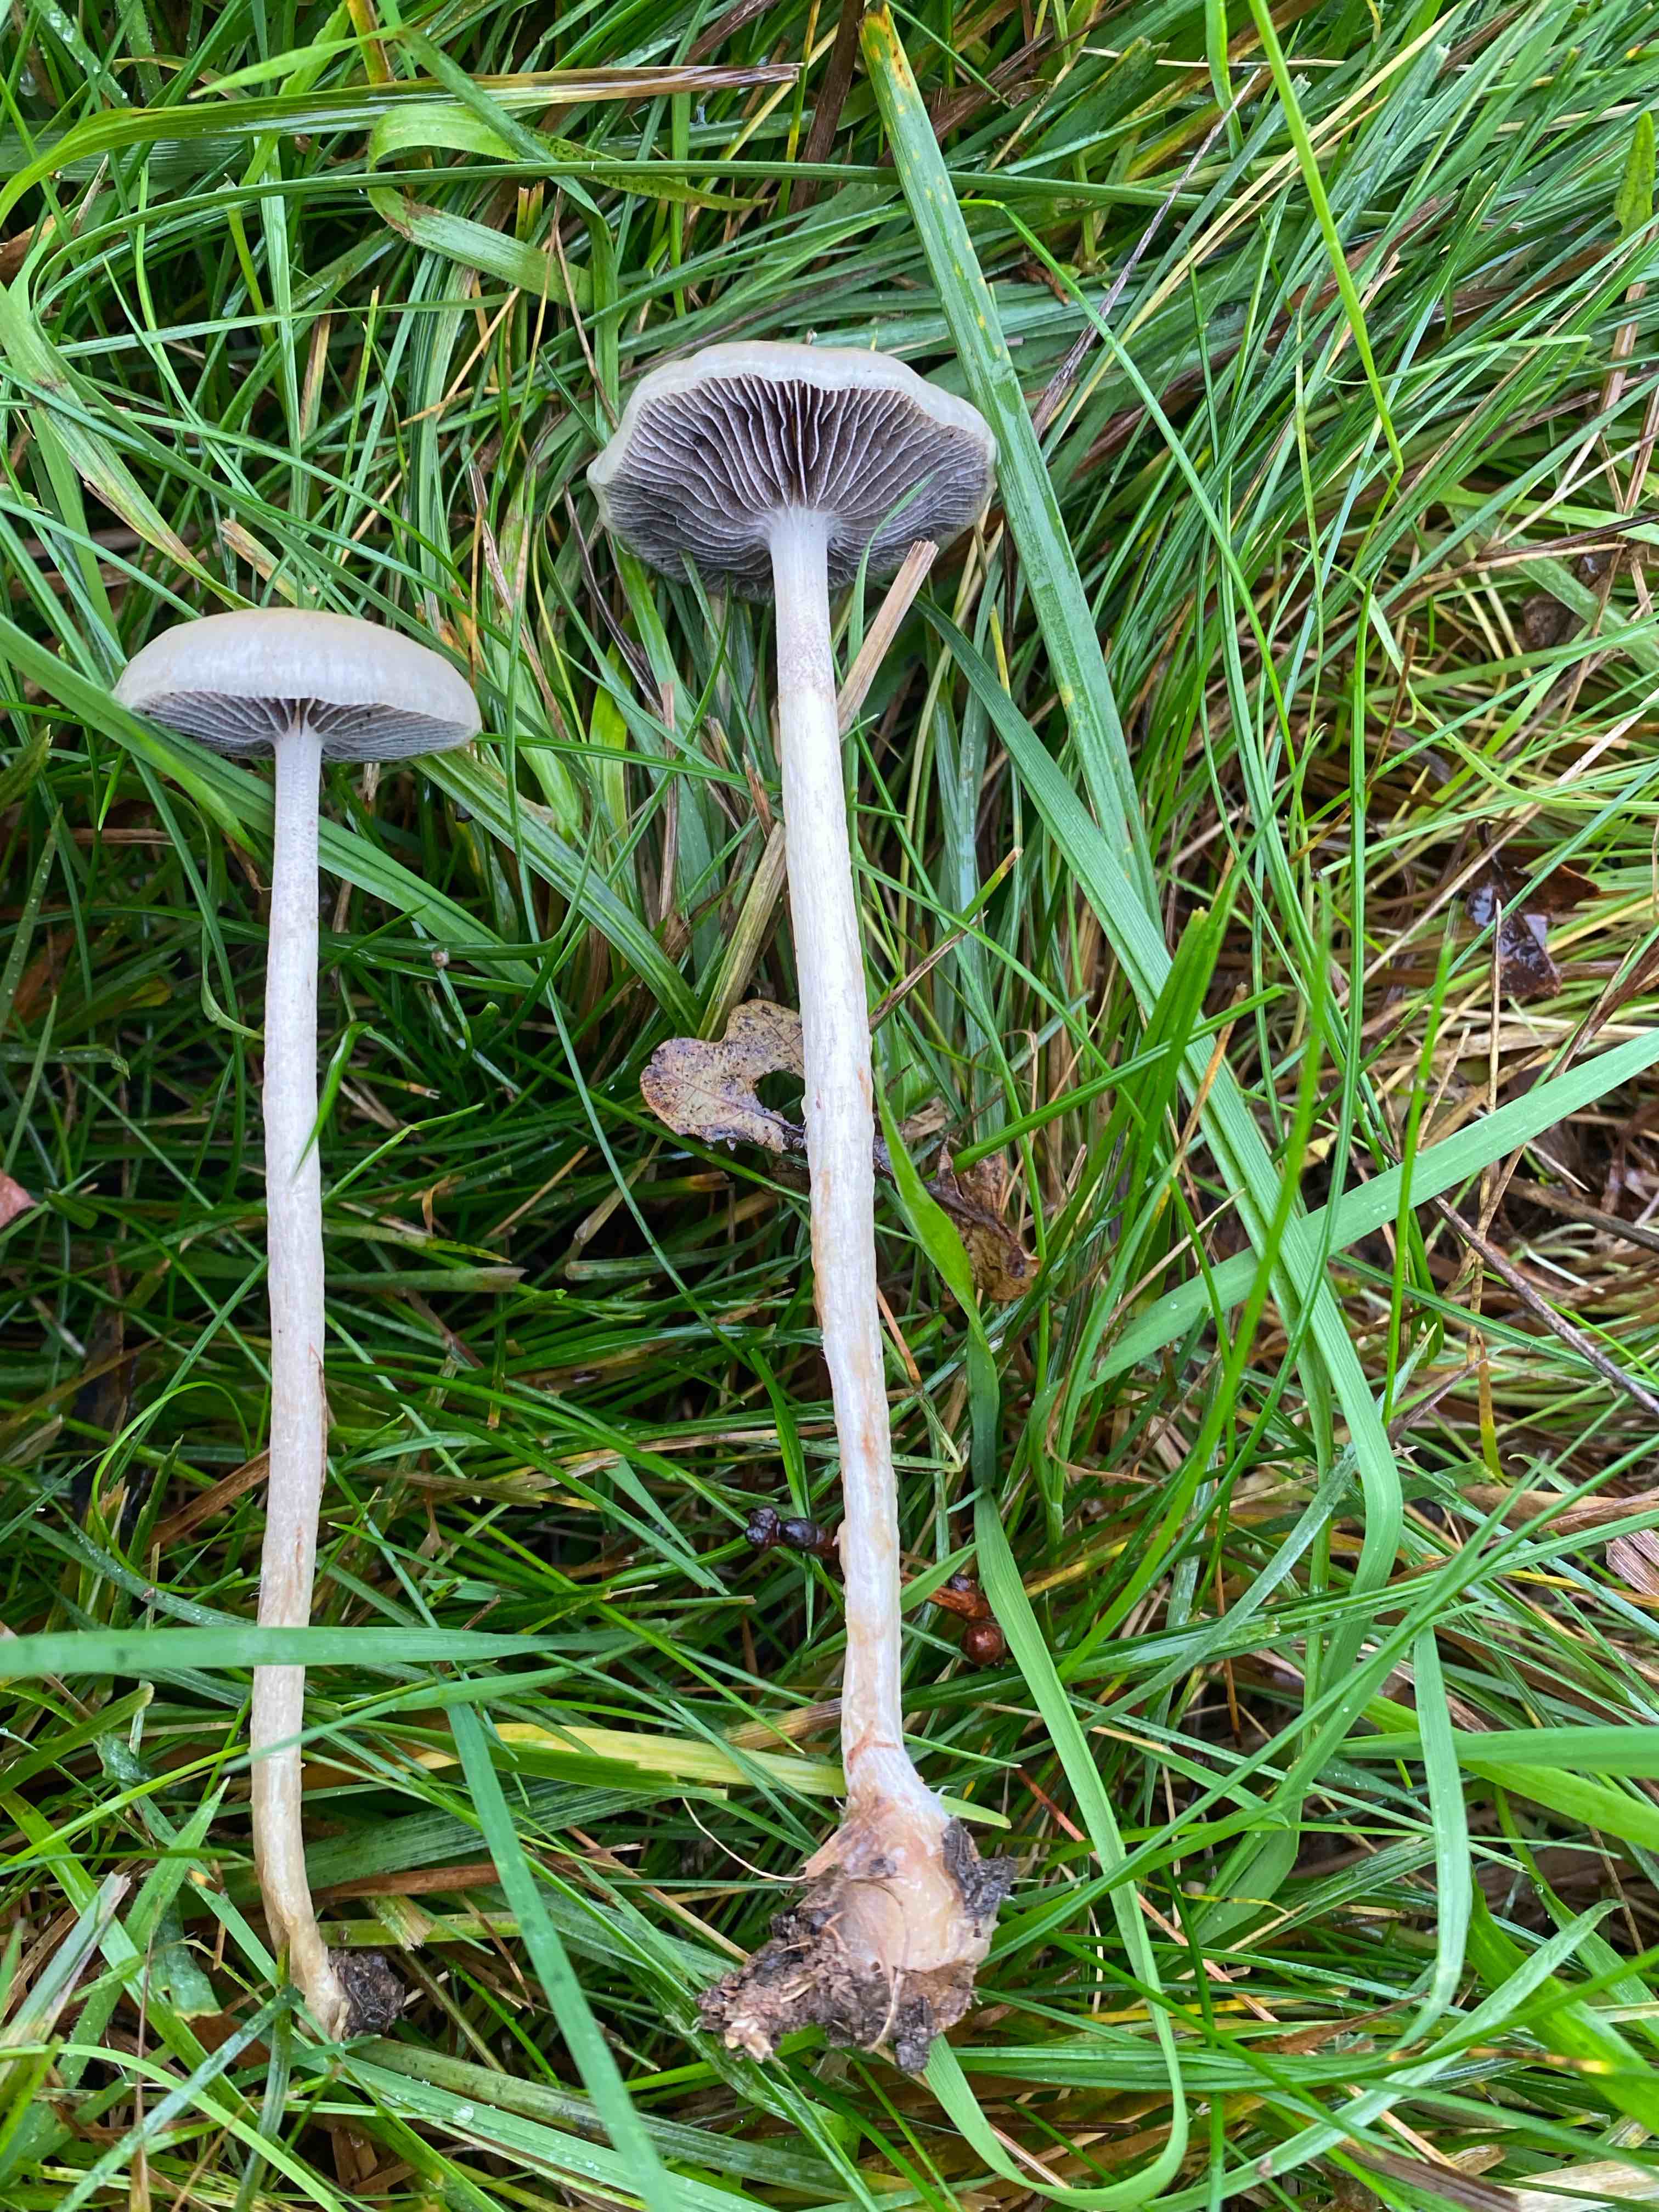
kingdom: Fungi
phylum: Basidiomycota
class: Agaricomycetes
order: Agaricales
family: Strophariaceae
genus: Protostropharia
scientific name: Protostropharia semiglobata
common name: halvkugleformet bredblad
